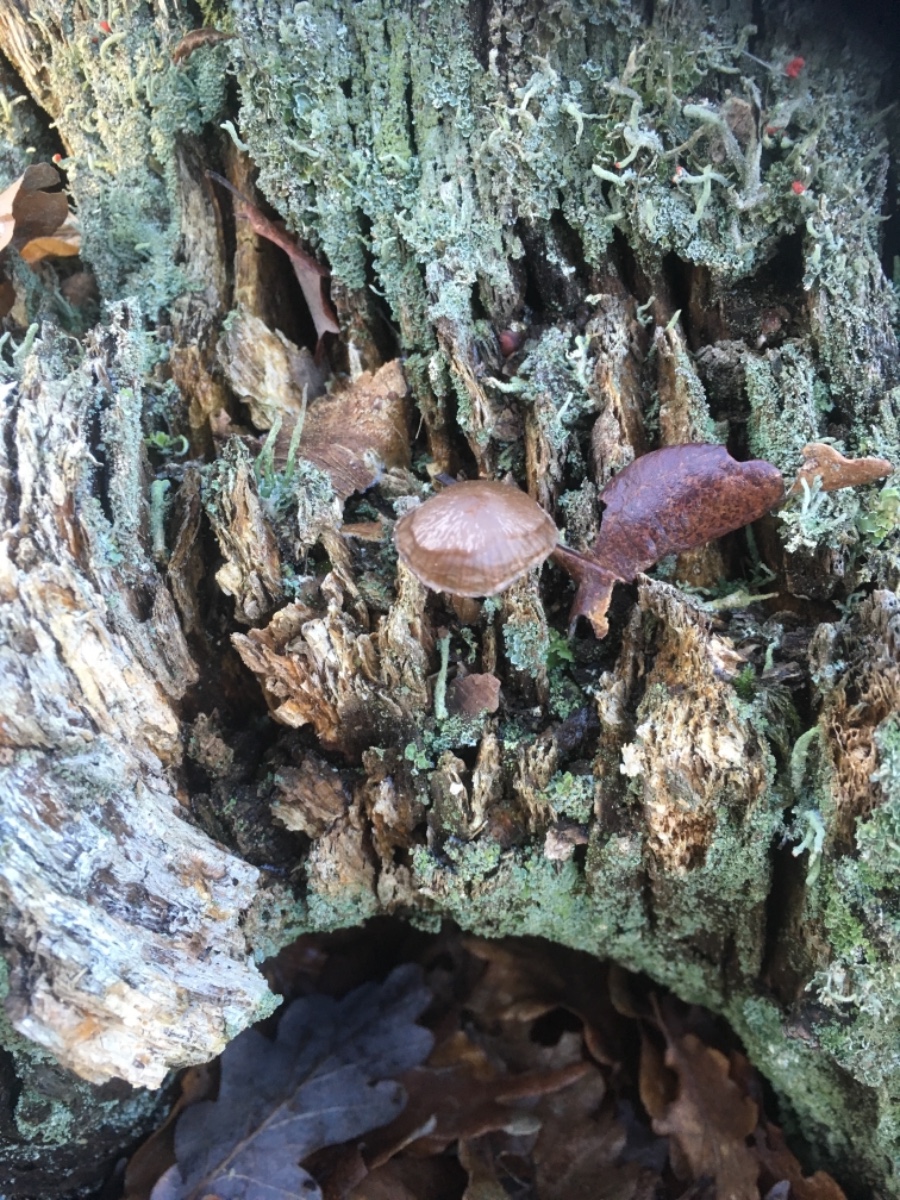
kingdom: Fungi
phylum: Basidiomycota
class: Agaricomycetes
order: Agaricales
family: Mycenaceae
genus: Mycena
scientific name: Mycena
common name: huesvamp
